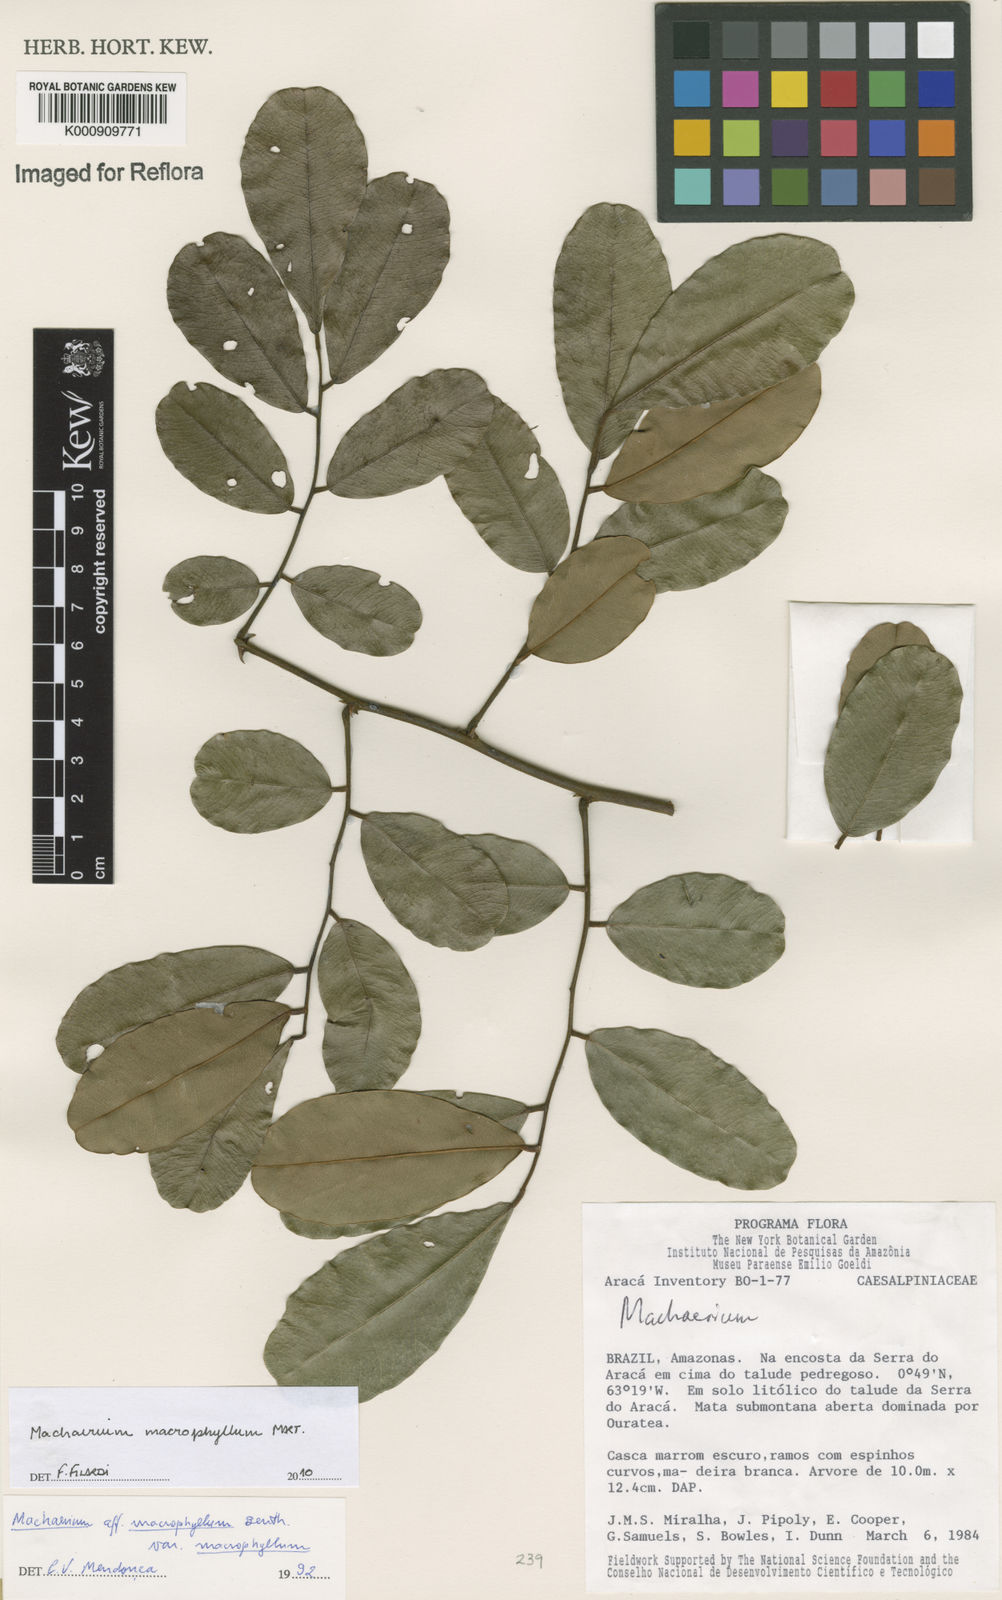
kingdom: Plantae
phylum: Tracheophyta
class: Magnoliopsida
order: Fabales
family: Fabaceae
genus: Machaerium
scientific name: Machaerium macrophyllum
